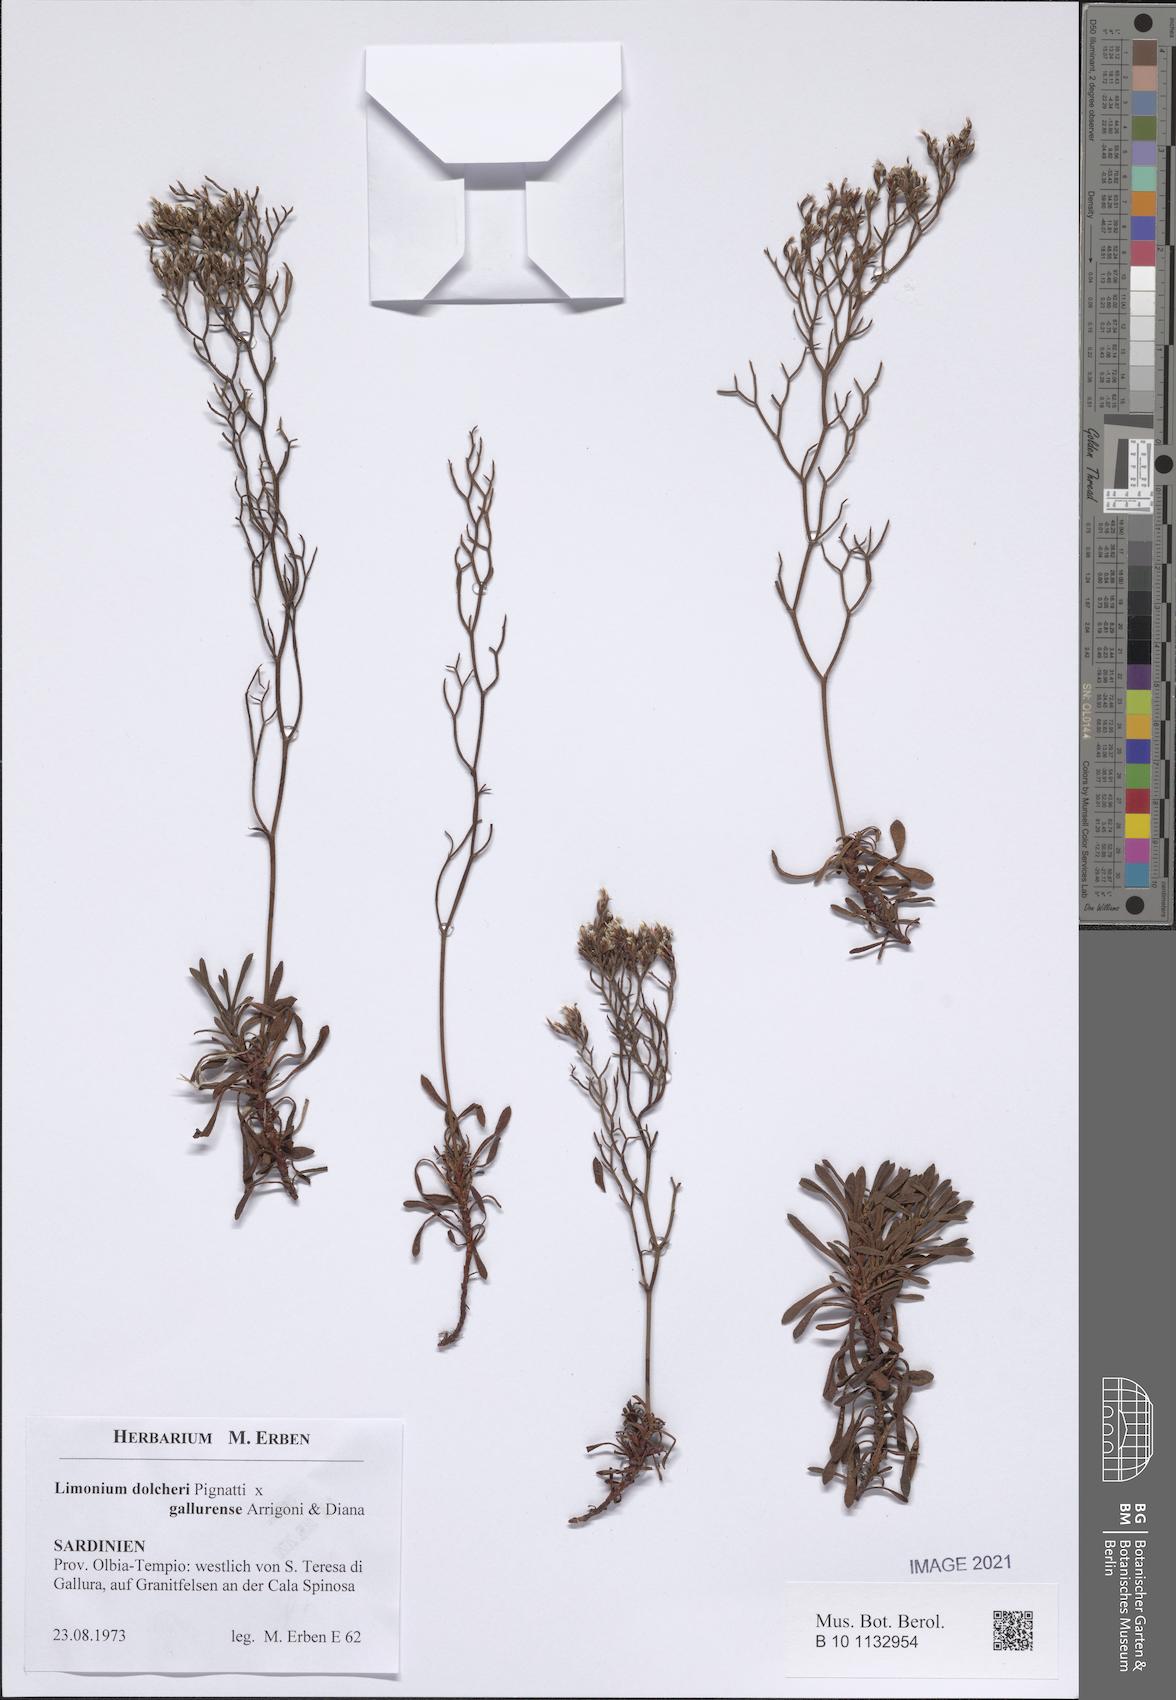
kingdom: Plantae
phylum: Tracheophyta
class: Magnoliopsida
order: Caryophyllales
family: Plumbaginaceae
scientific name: Plumbaginaceae
